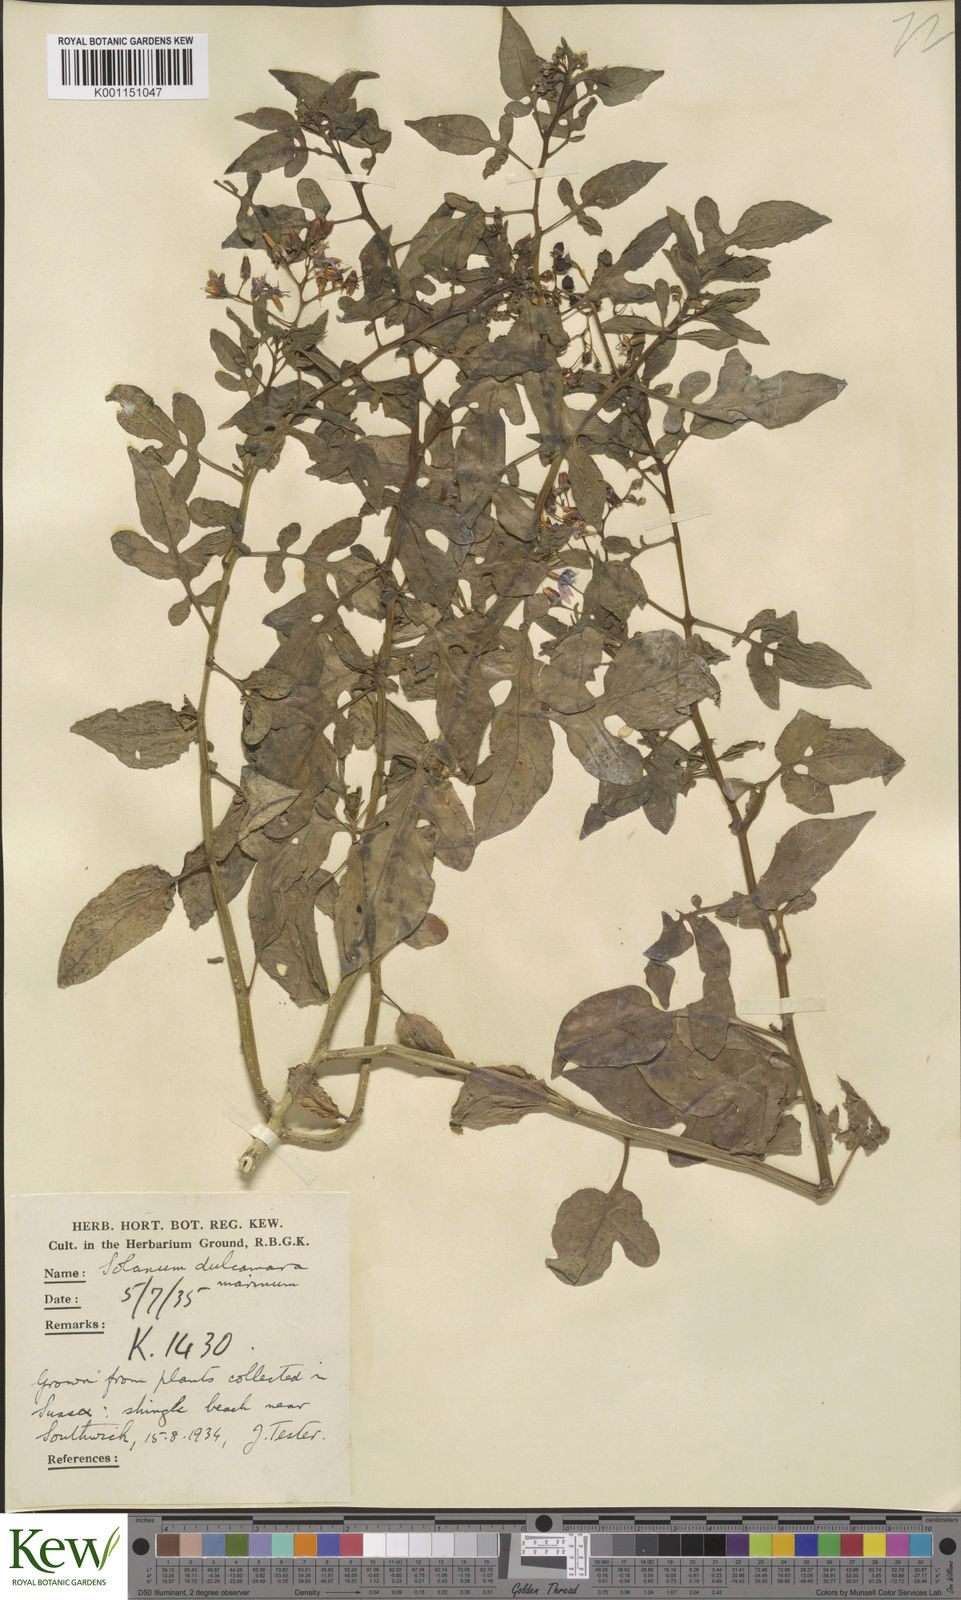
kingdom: Plantae
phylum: Tracheophyta
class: Magnoliopsida
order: Solanales
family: Solanaceae
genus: Solanum
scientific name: Solanum dulcamara
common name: Climbing nightshade
